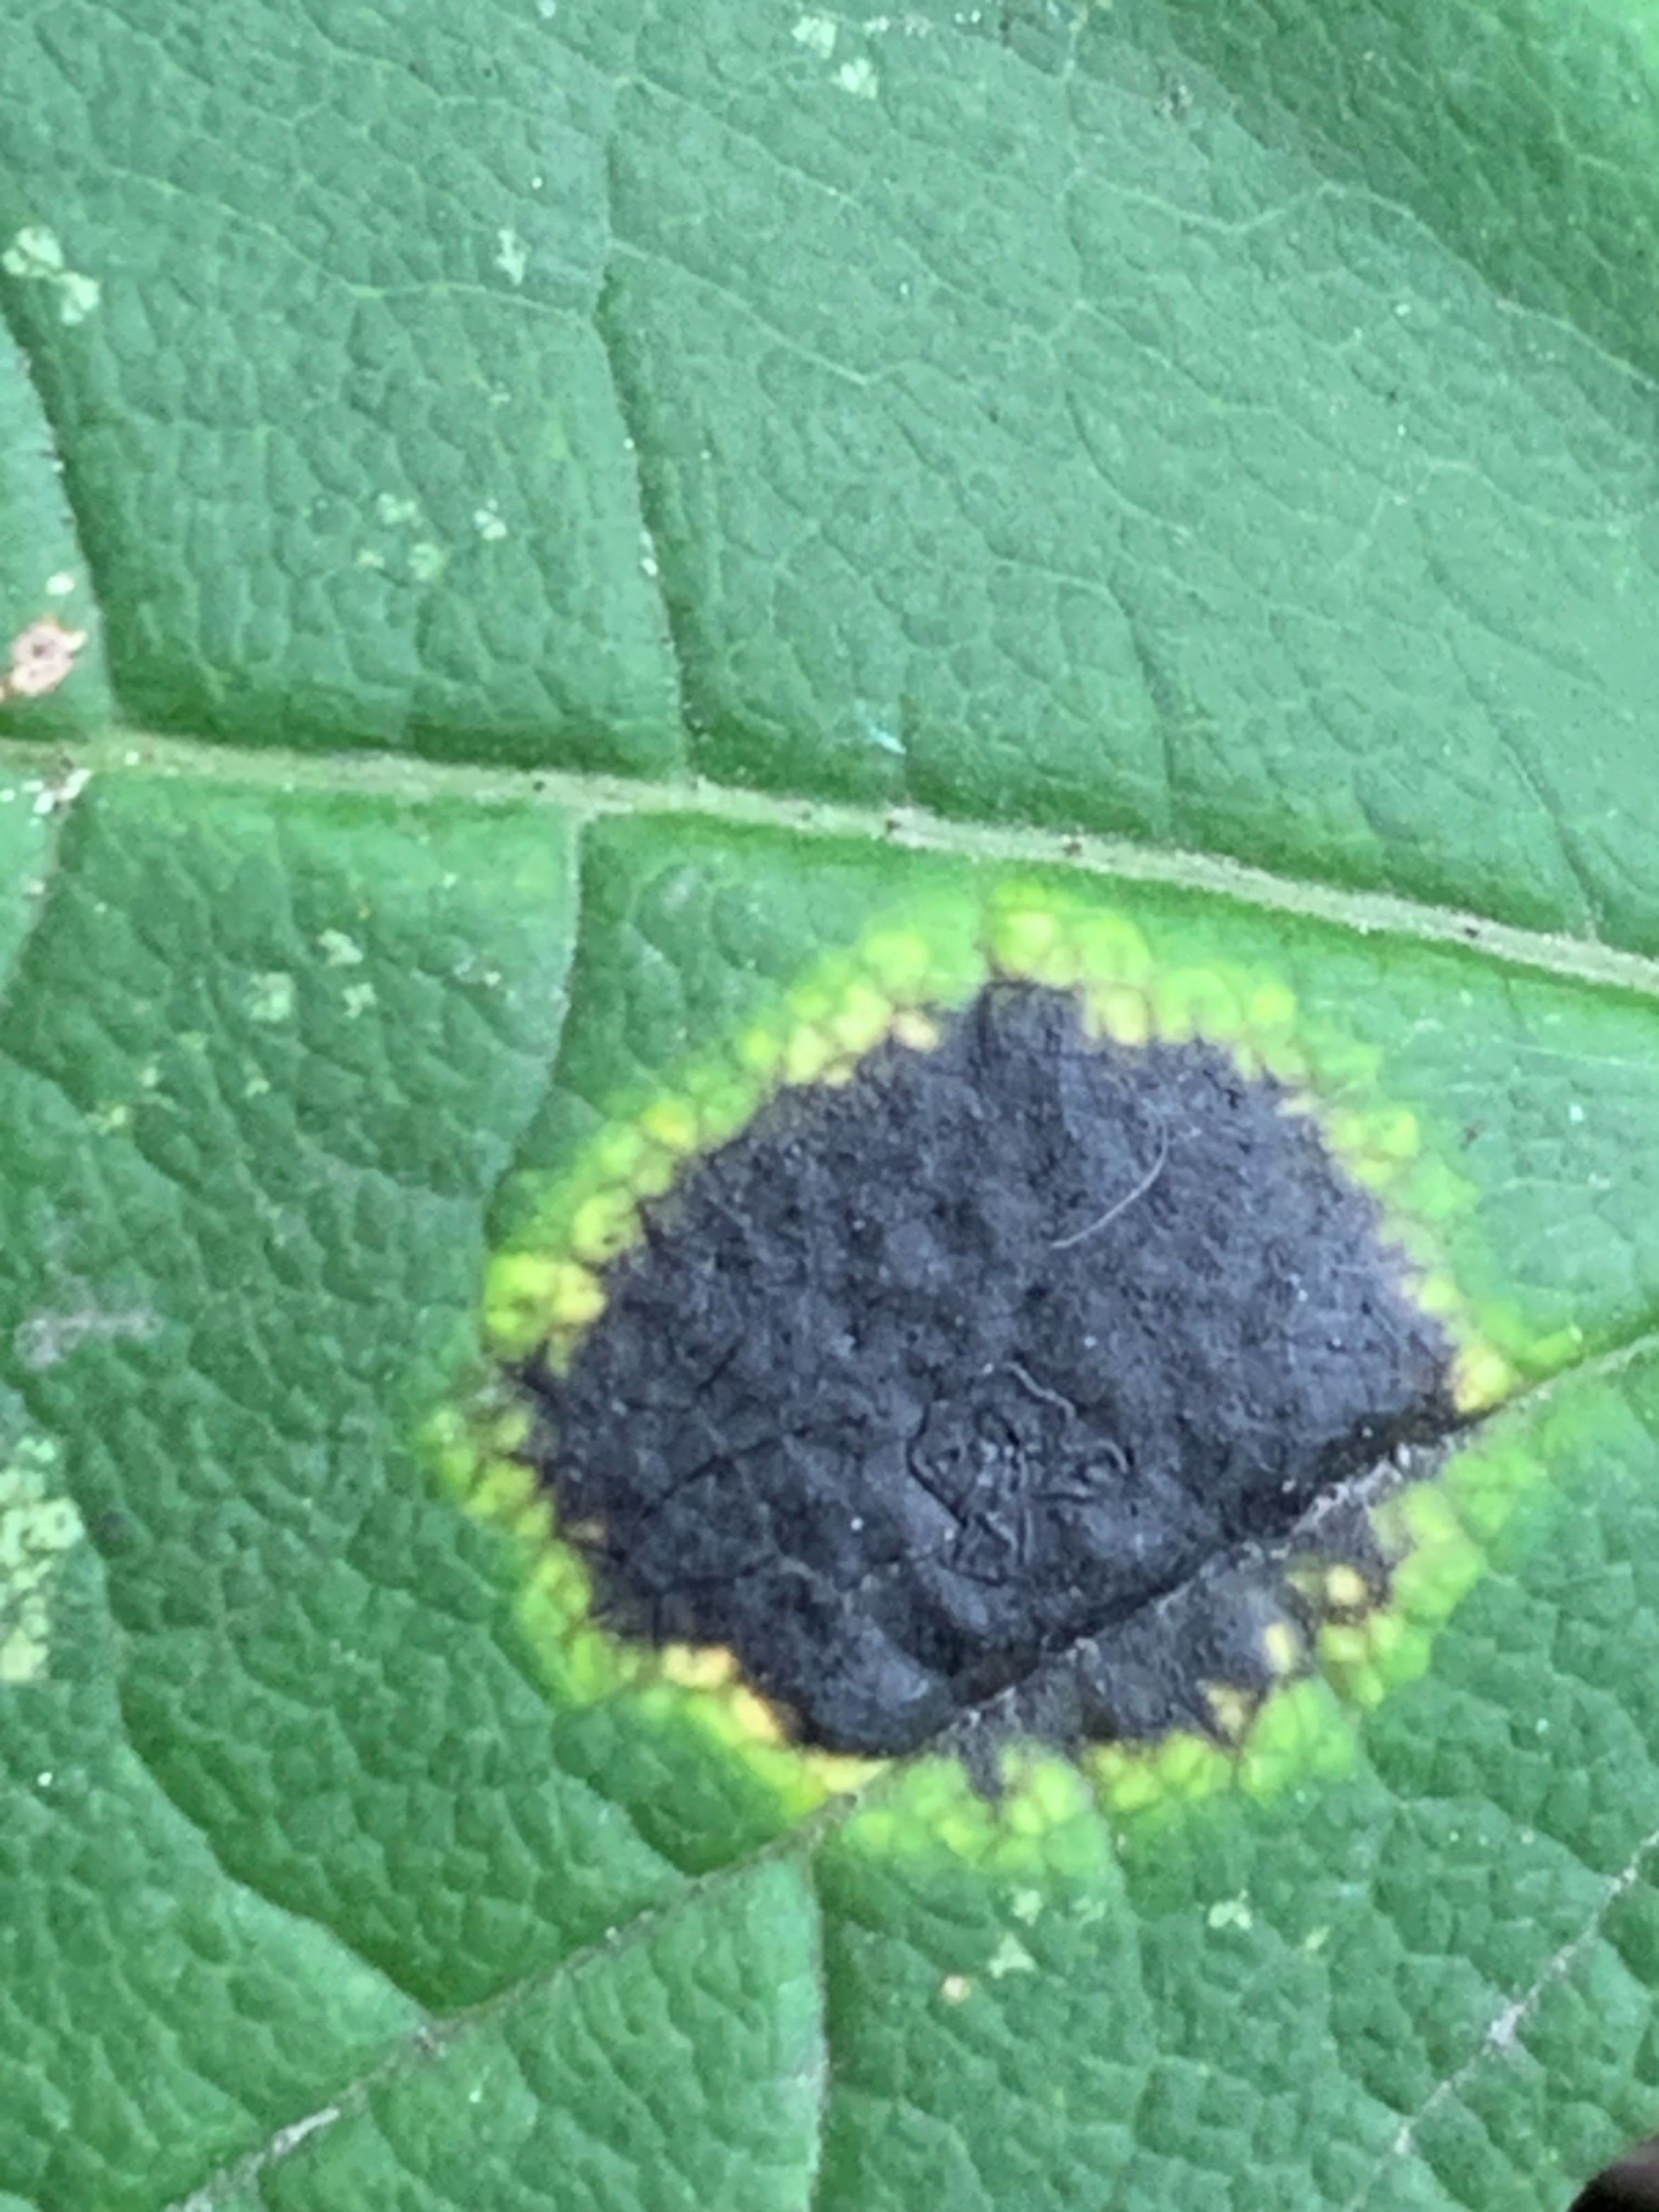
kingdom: Fungi
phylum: Ascomycota
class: Leotiomycetes
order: Rhytismatales
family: Rhytismataceae
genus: Rhytisma
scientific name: Rhytisma acerinum
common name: ahorn-rynkeplet
